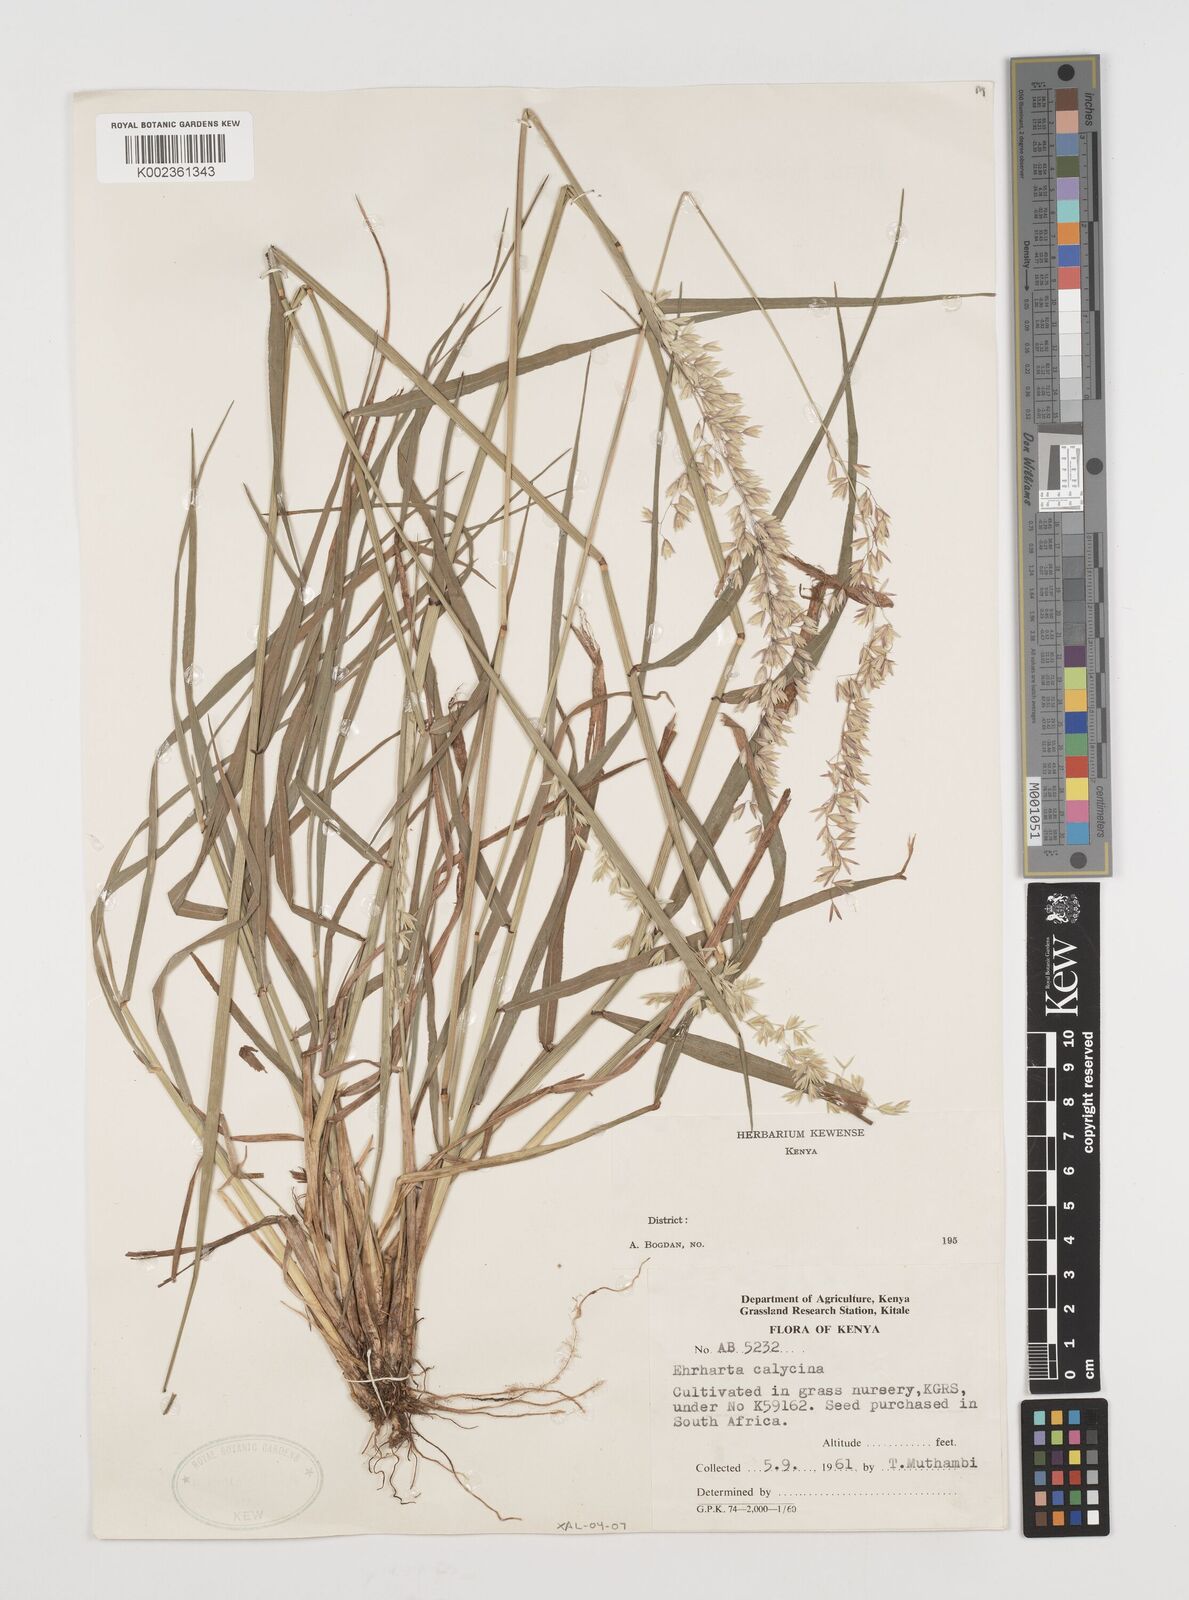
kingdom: Plantae
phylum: Tracheophyta
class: Liliopsida
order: Poales
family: Poaceae
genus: Ehrharta
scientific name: Ehrharta calycina
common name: Perennial veldtgrass
